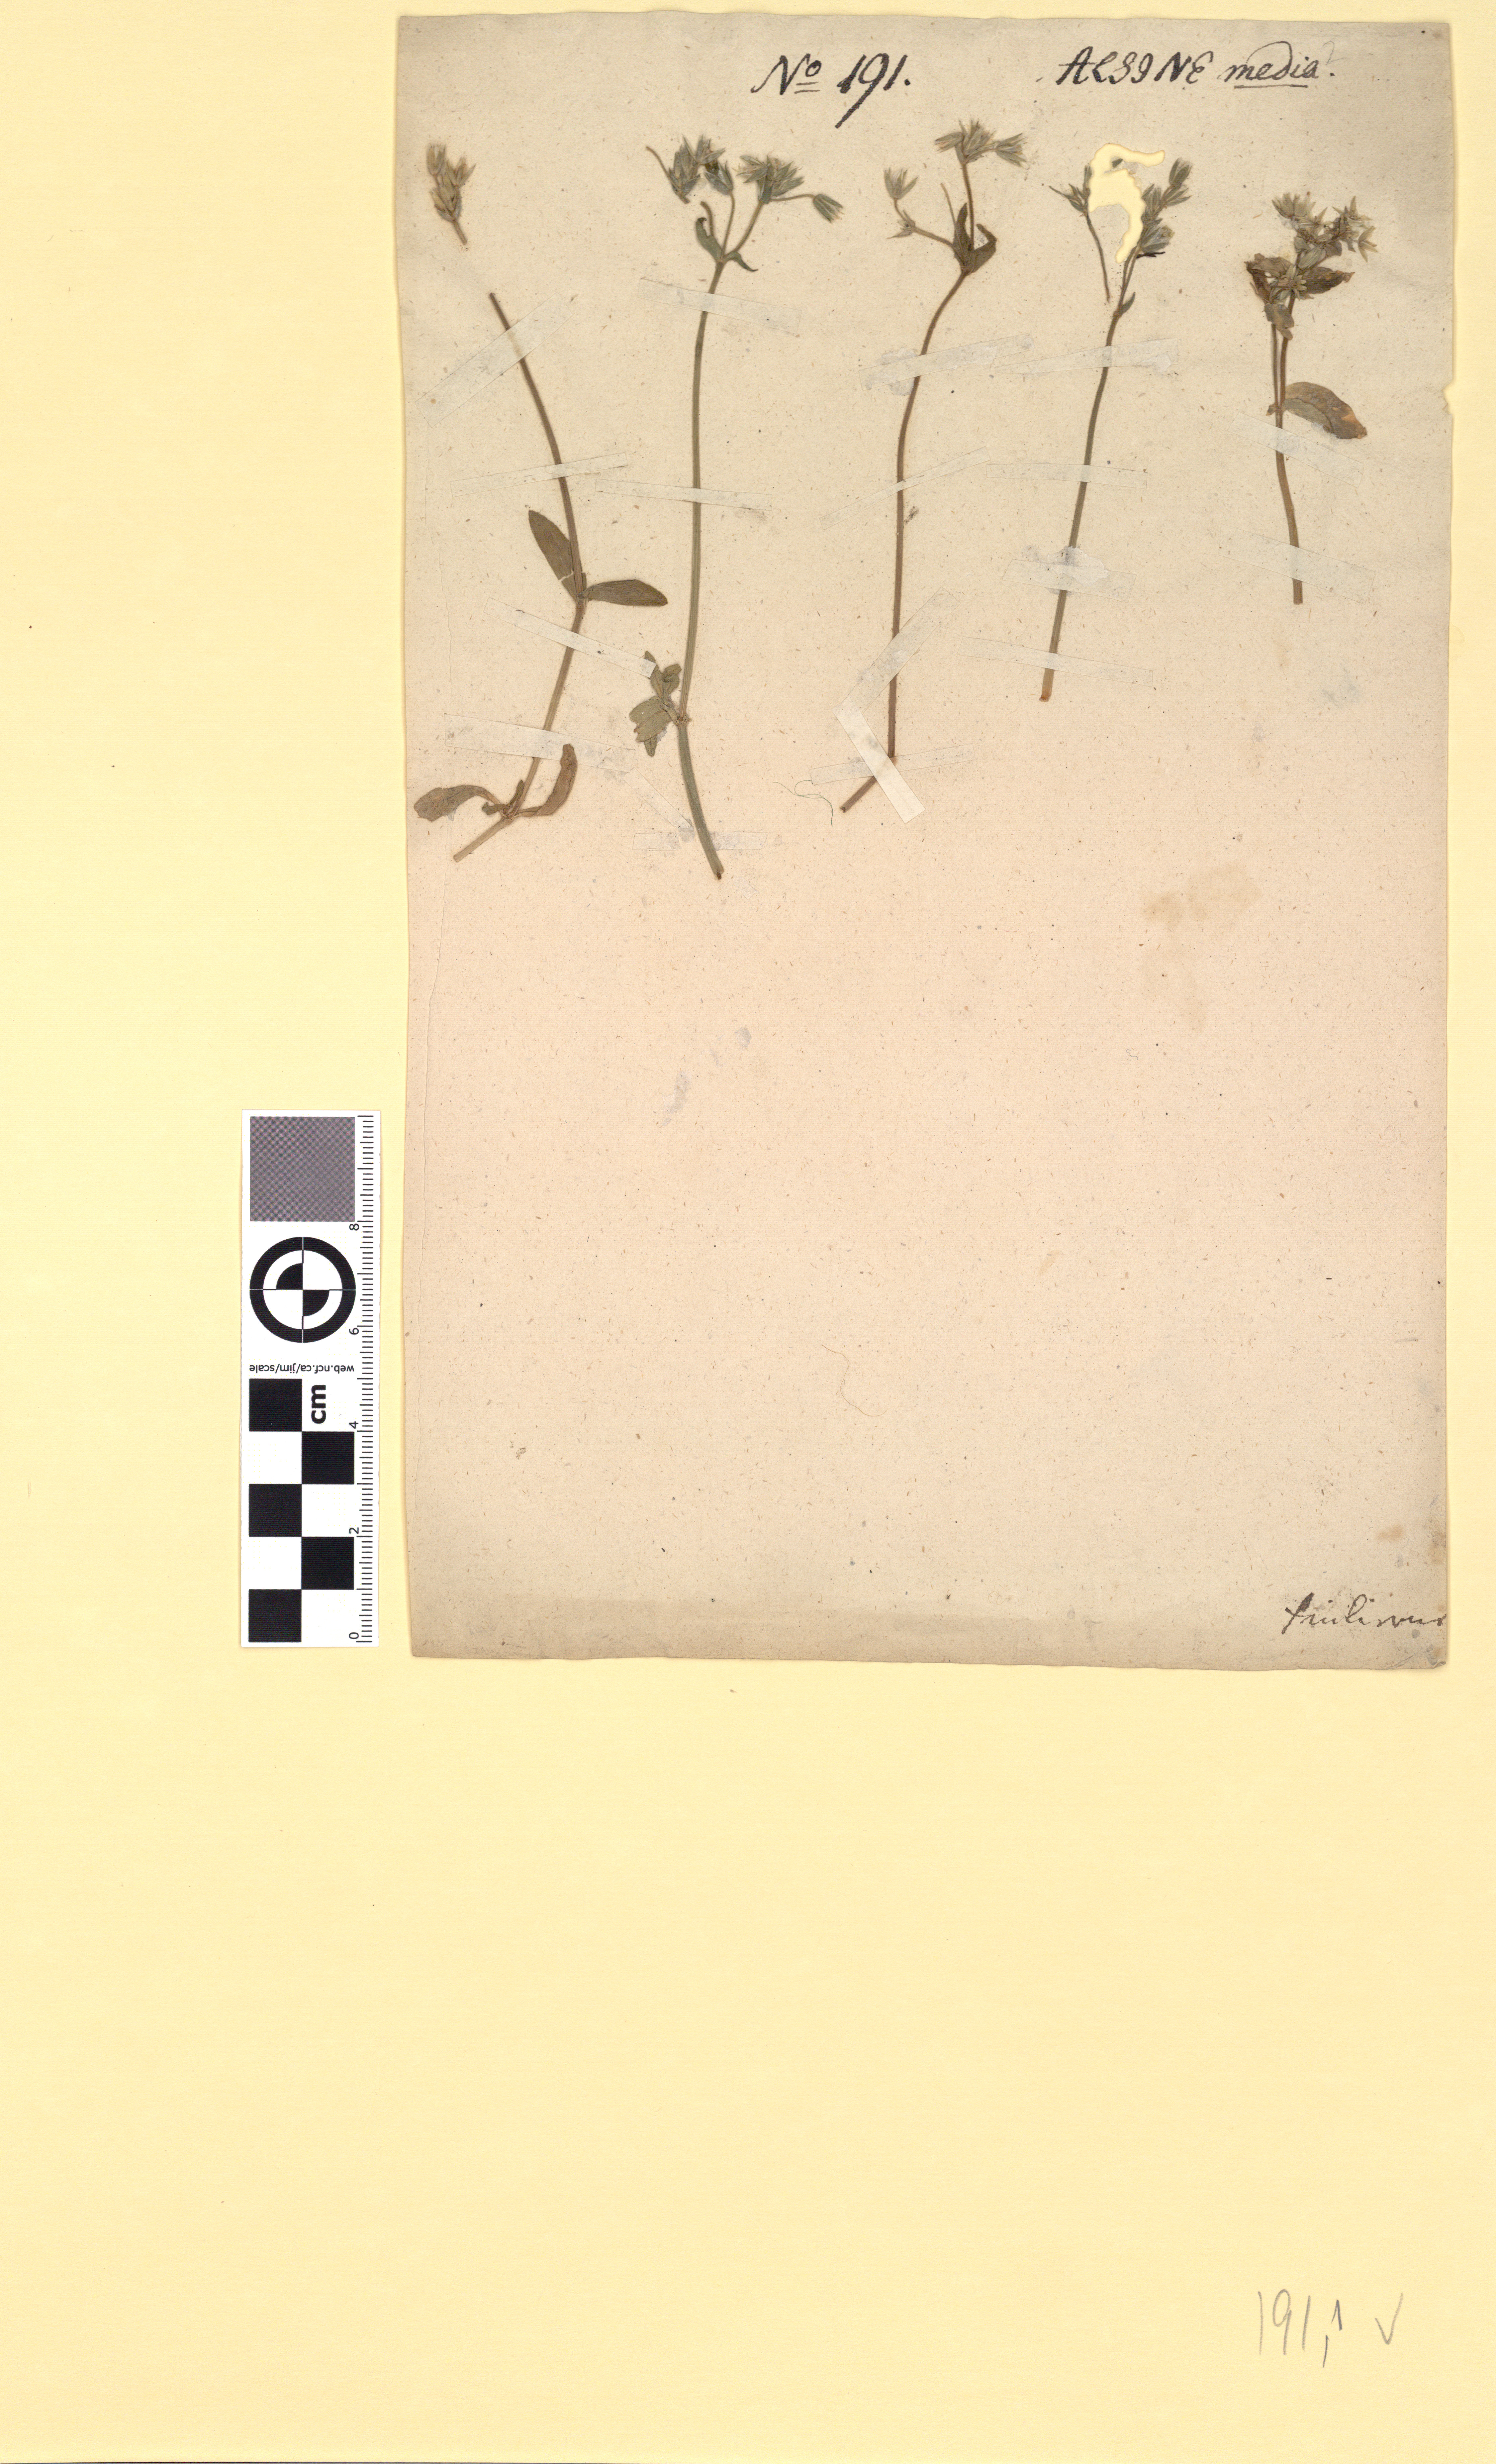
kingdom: Plantae
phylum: Tracheophyta
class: Magnoliopsida
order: Caryophyllales
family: Caryophyllaceae
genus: Cerastium
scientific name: Cerastium holosteoides
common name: Big chickweed
